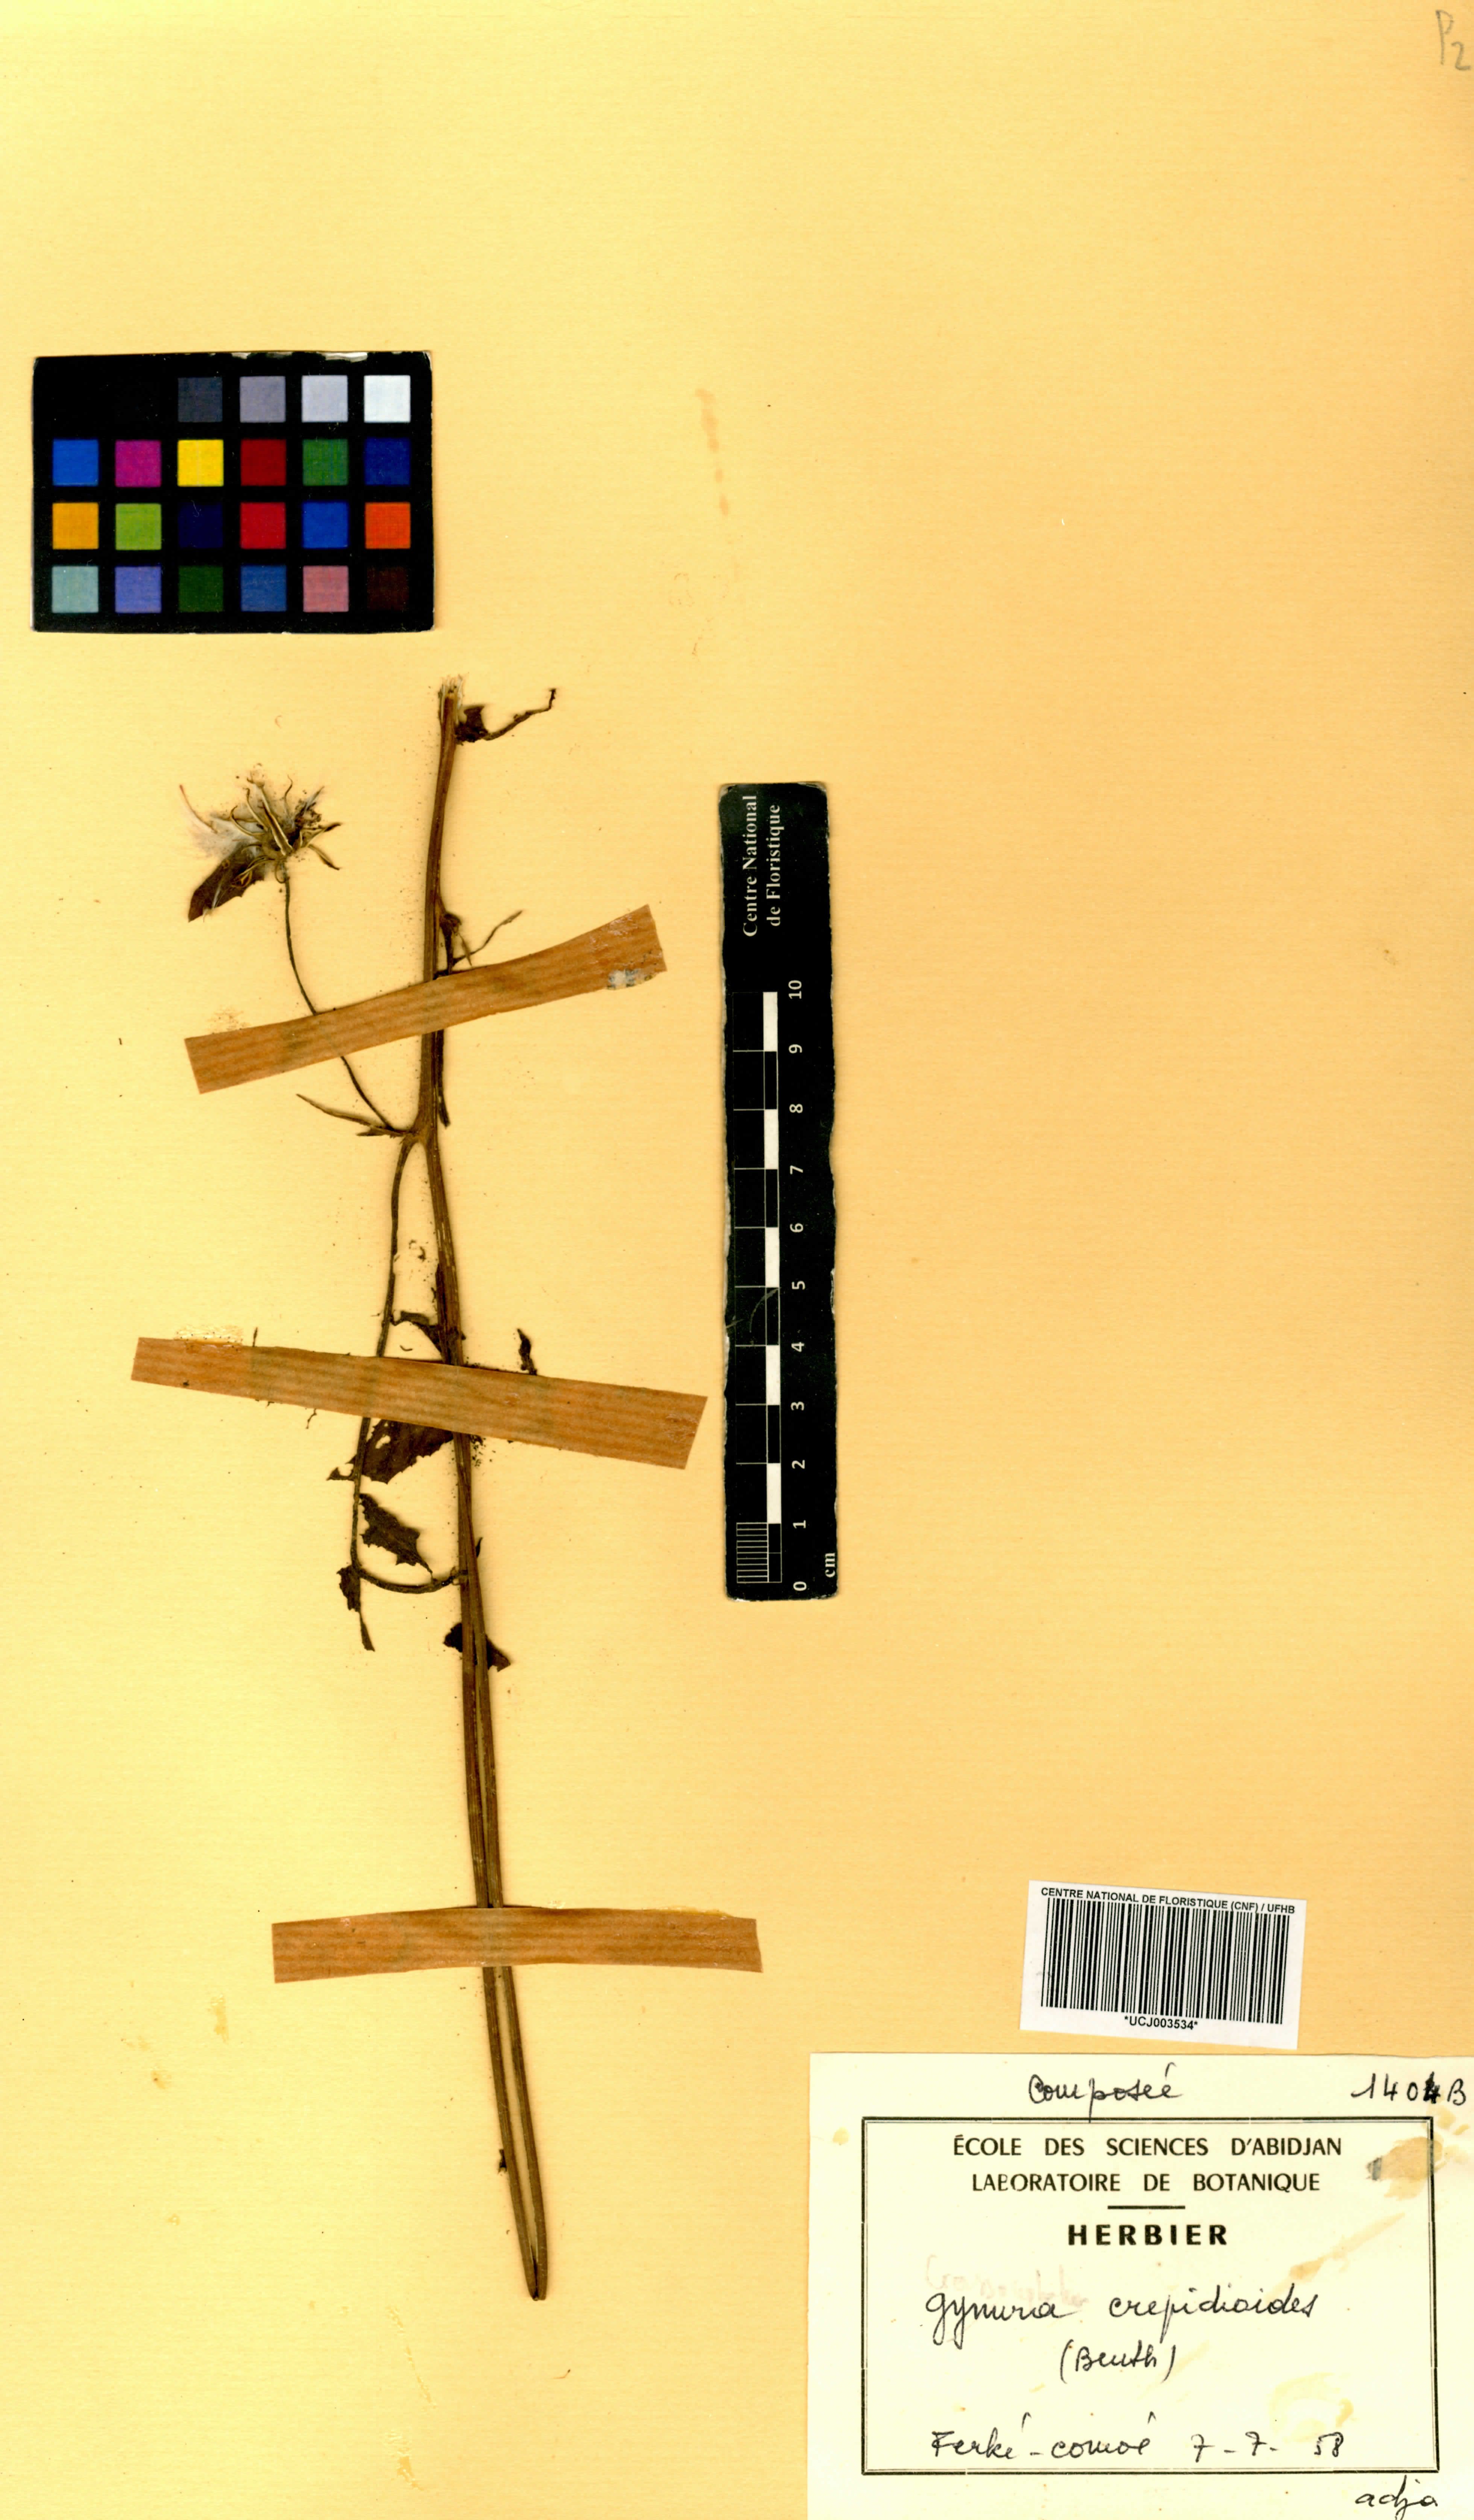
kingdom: Plantae
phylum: Tracheophyta
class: Magnoliopsida
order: Asterales
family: Asteraceae
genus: Crassocephalum
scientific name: Crassocephalum crepidioides
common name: Redflower ragleaf
